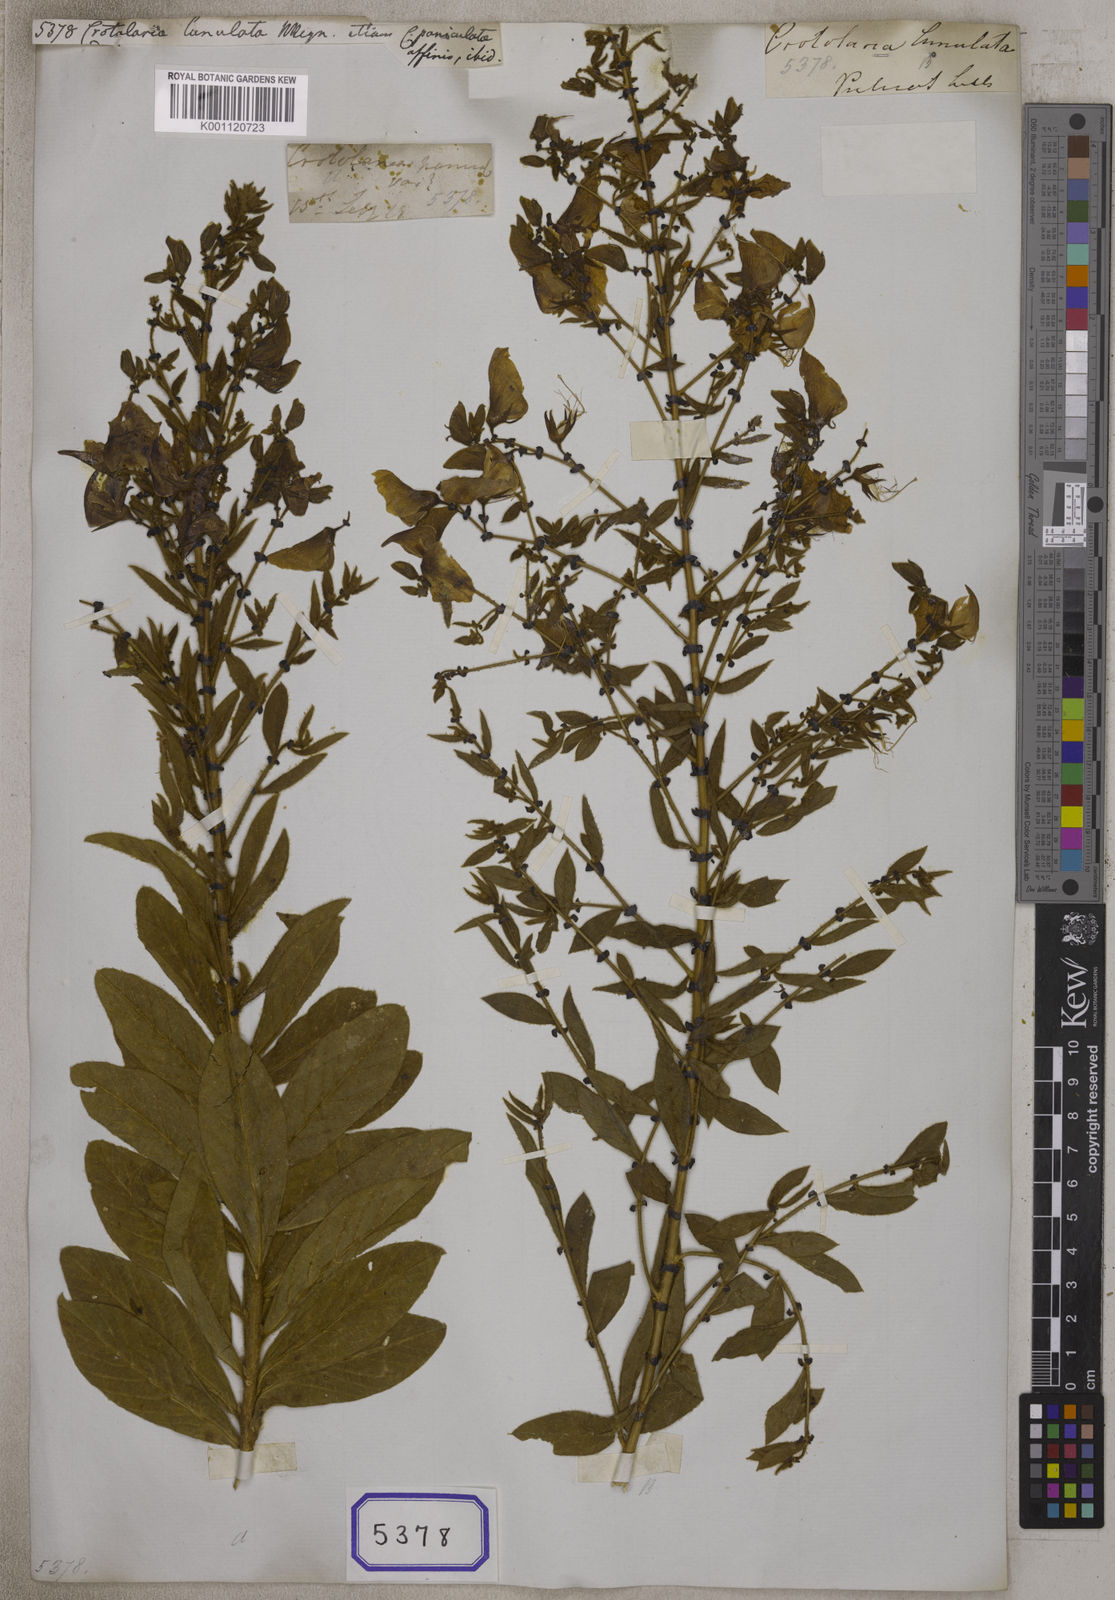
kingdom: Plantae
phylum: Tracheophyta
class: Magnoliopsida
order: Fabales
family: Fabaceae
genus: Crotalaria
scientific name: Crotalaria
